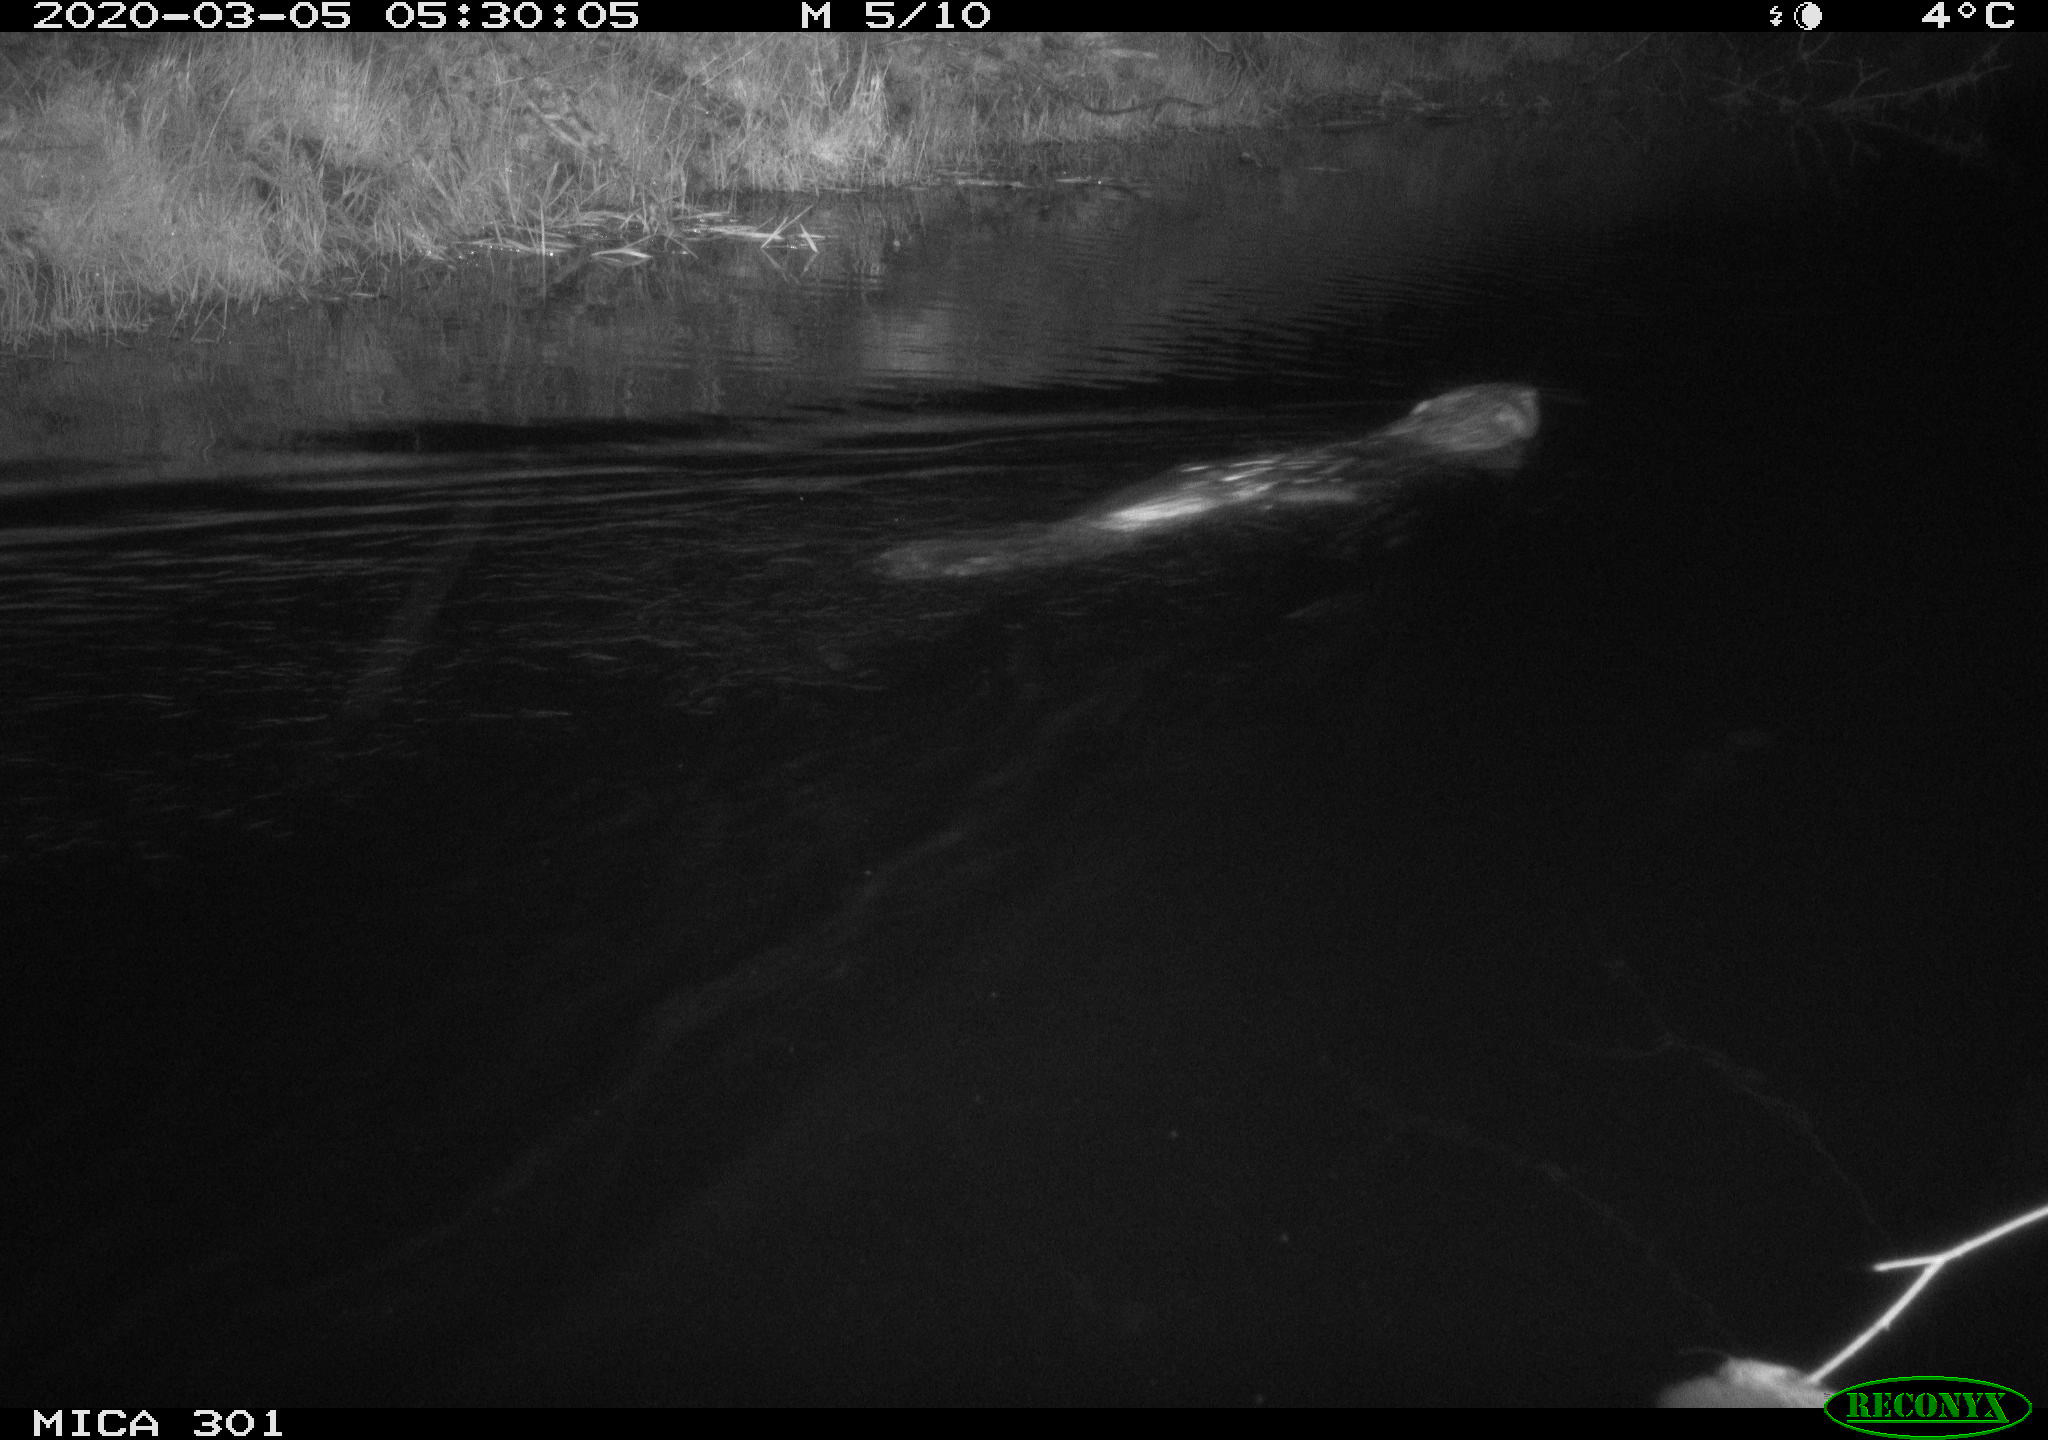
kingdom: Animalia
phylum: Chordata
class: Mammalia
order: Rodentia
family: Castoridae
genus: Castor
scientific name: Castor fiber
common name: Eurasian beaver
